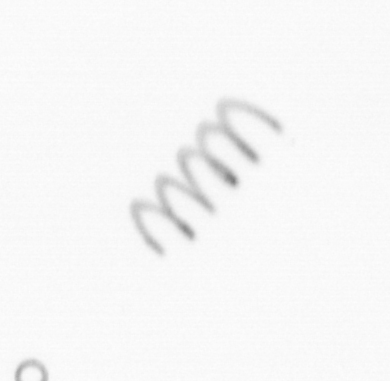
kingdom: Chromista
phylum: Ochrophyta
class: Bacillariophyceae
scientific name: Bacillariophyceae
